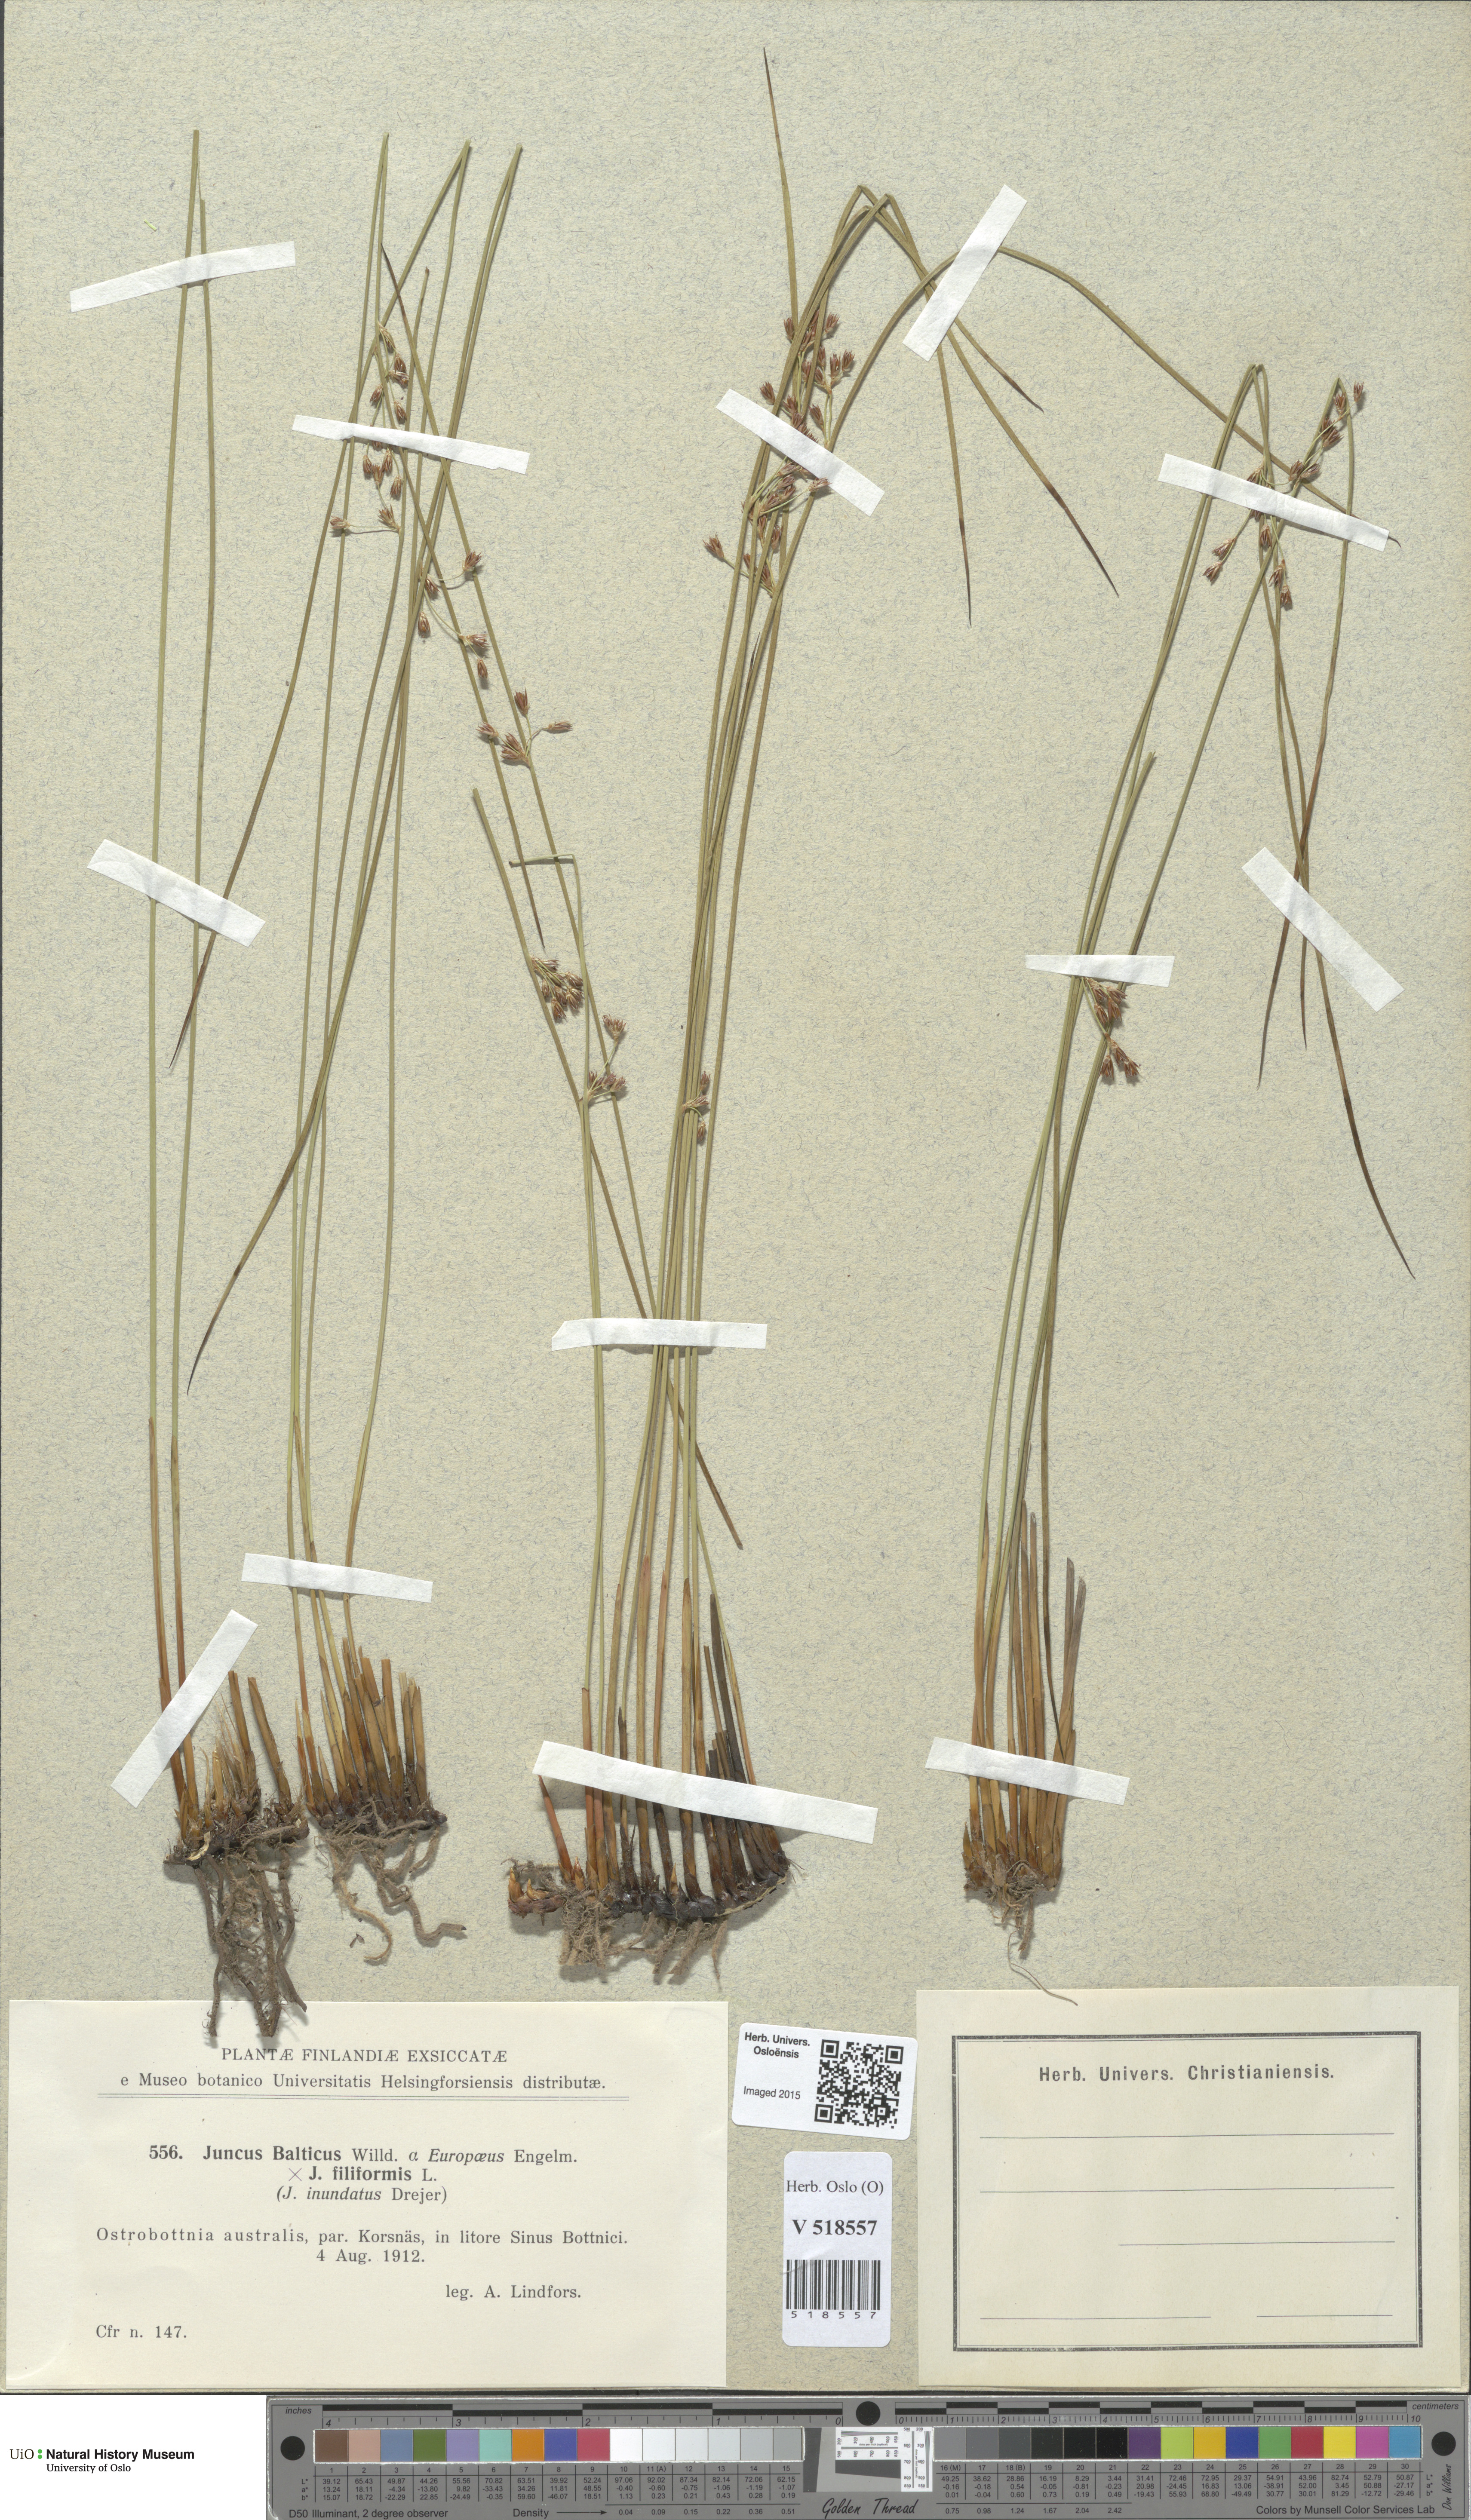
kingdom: Plantae
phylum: Tracheophyta
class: Liliopsida
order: Poales
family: Juncaceae
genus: Juncus
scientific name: Juncus
